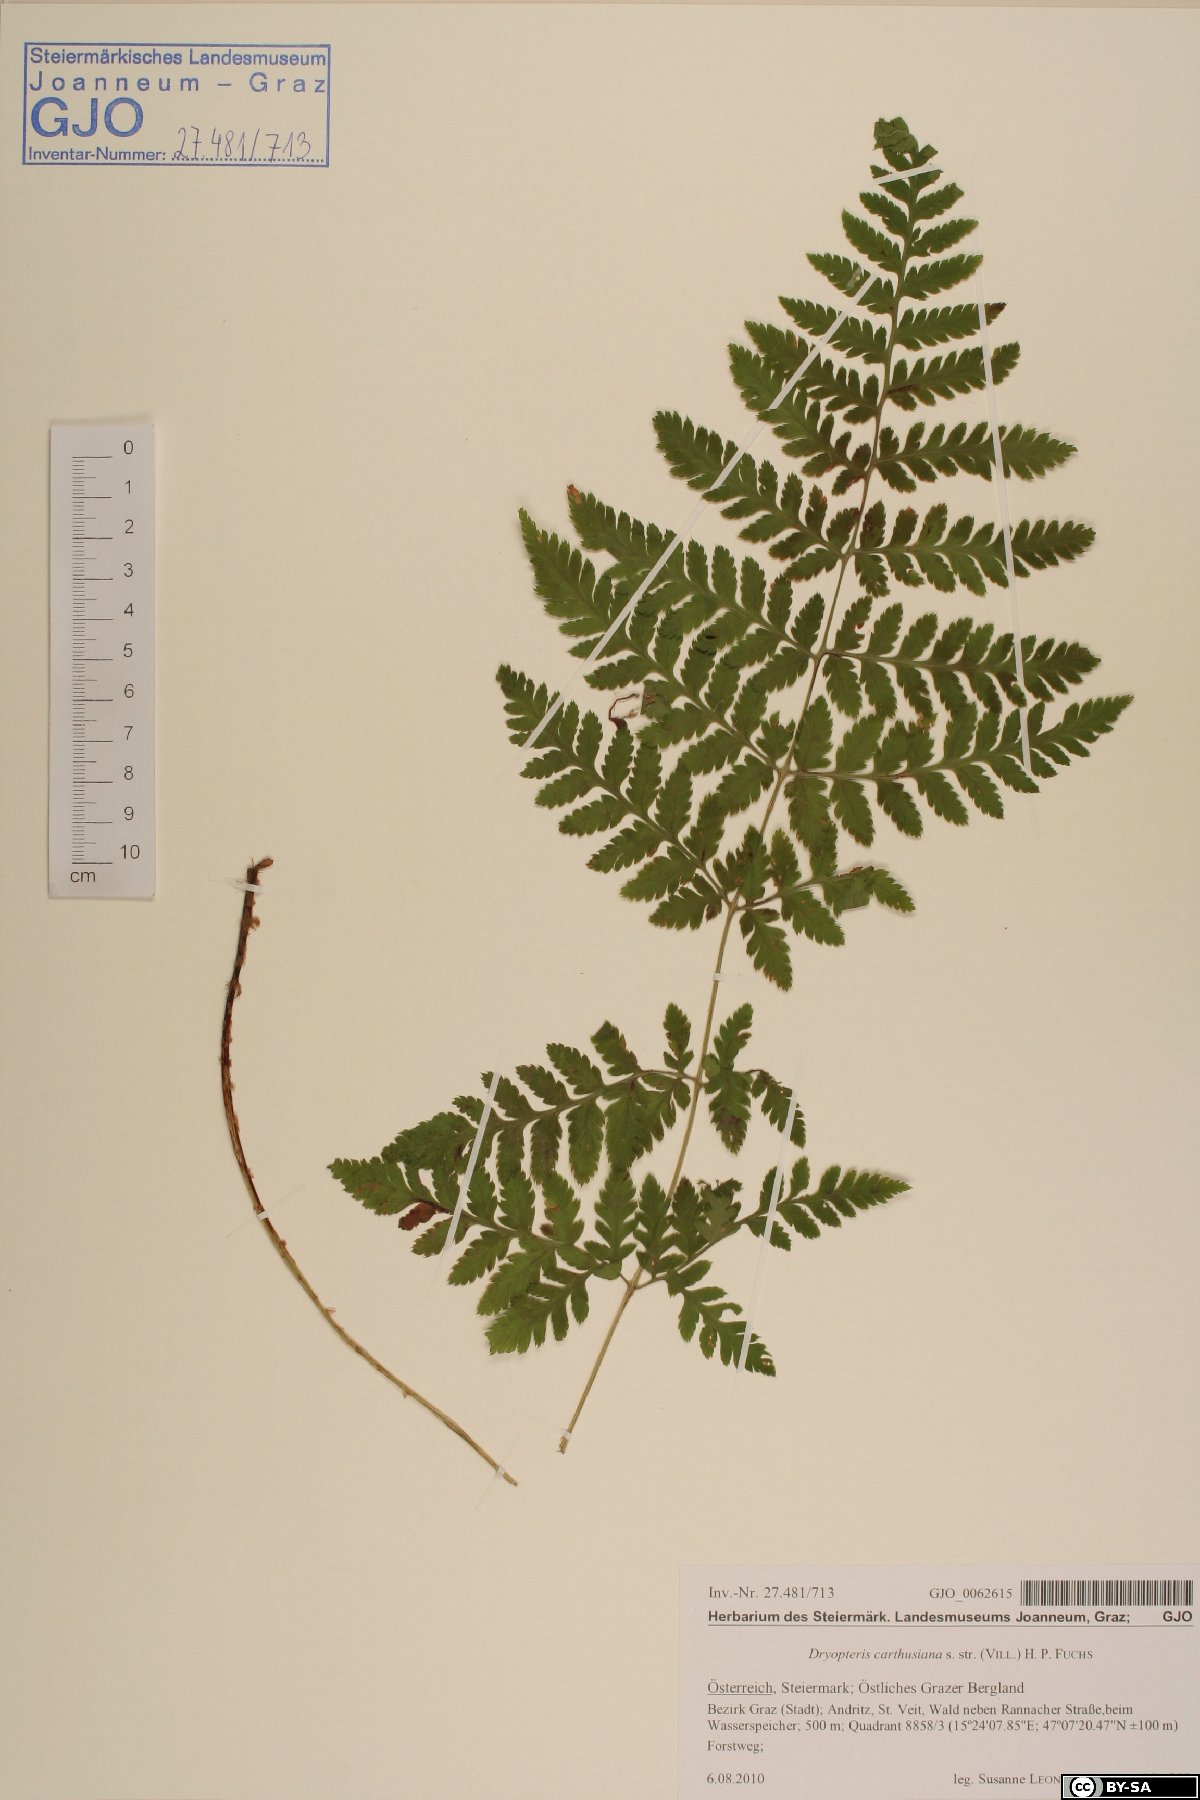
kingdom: Plantae
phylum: Tracheophyta
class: Polypodiopsida
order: Polypodiales
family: Dryopteridaceae
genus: Dryopteris
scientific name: Dryopteris carthusiana
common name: Narrow buckler-fern
